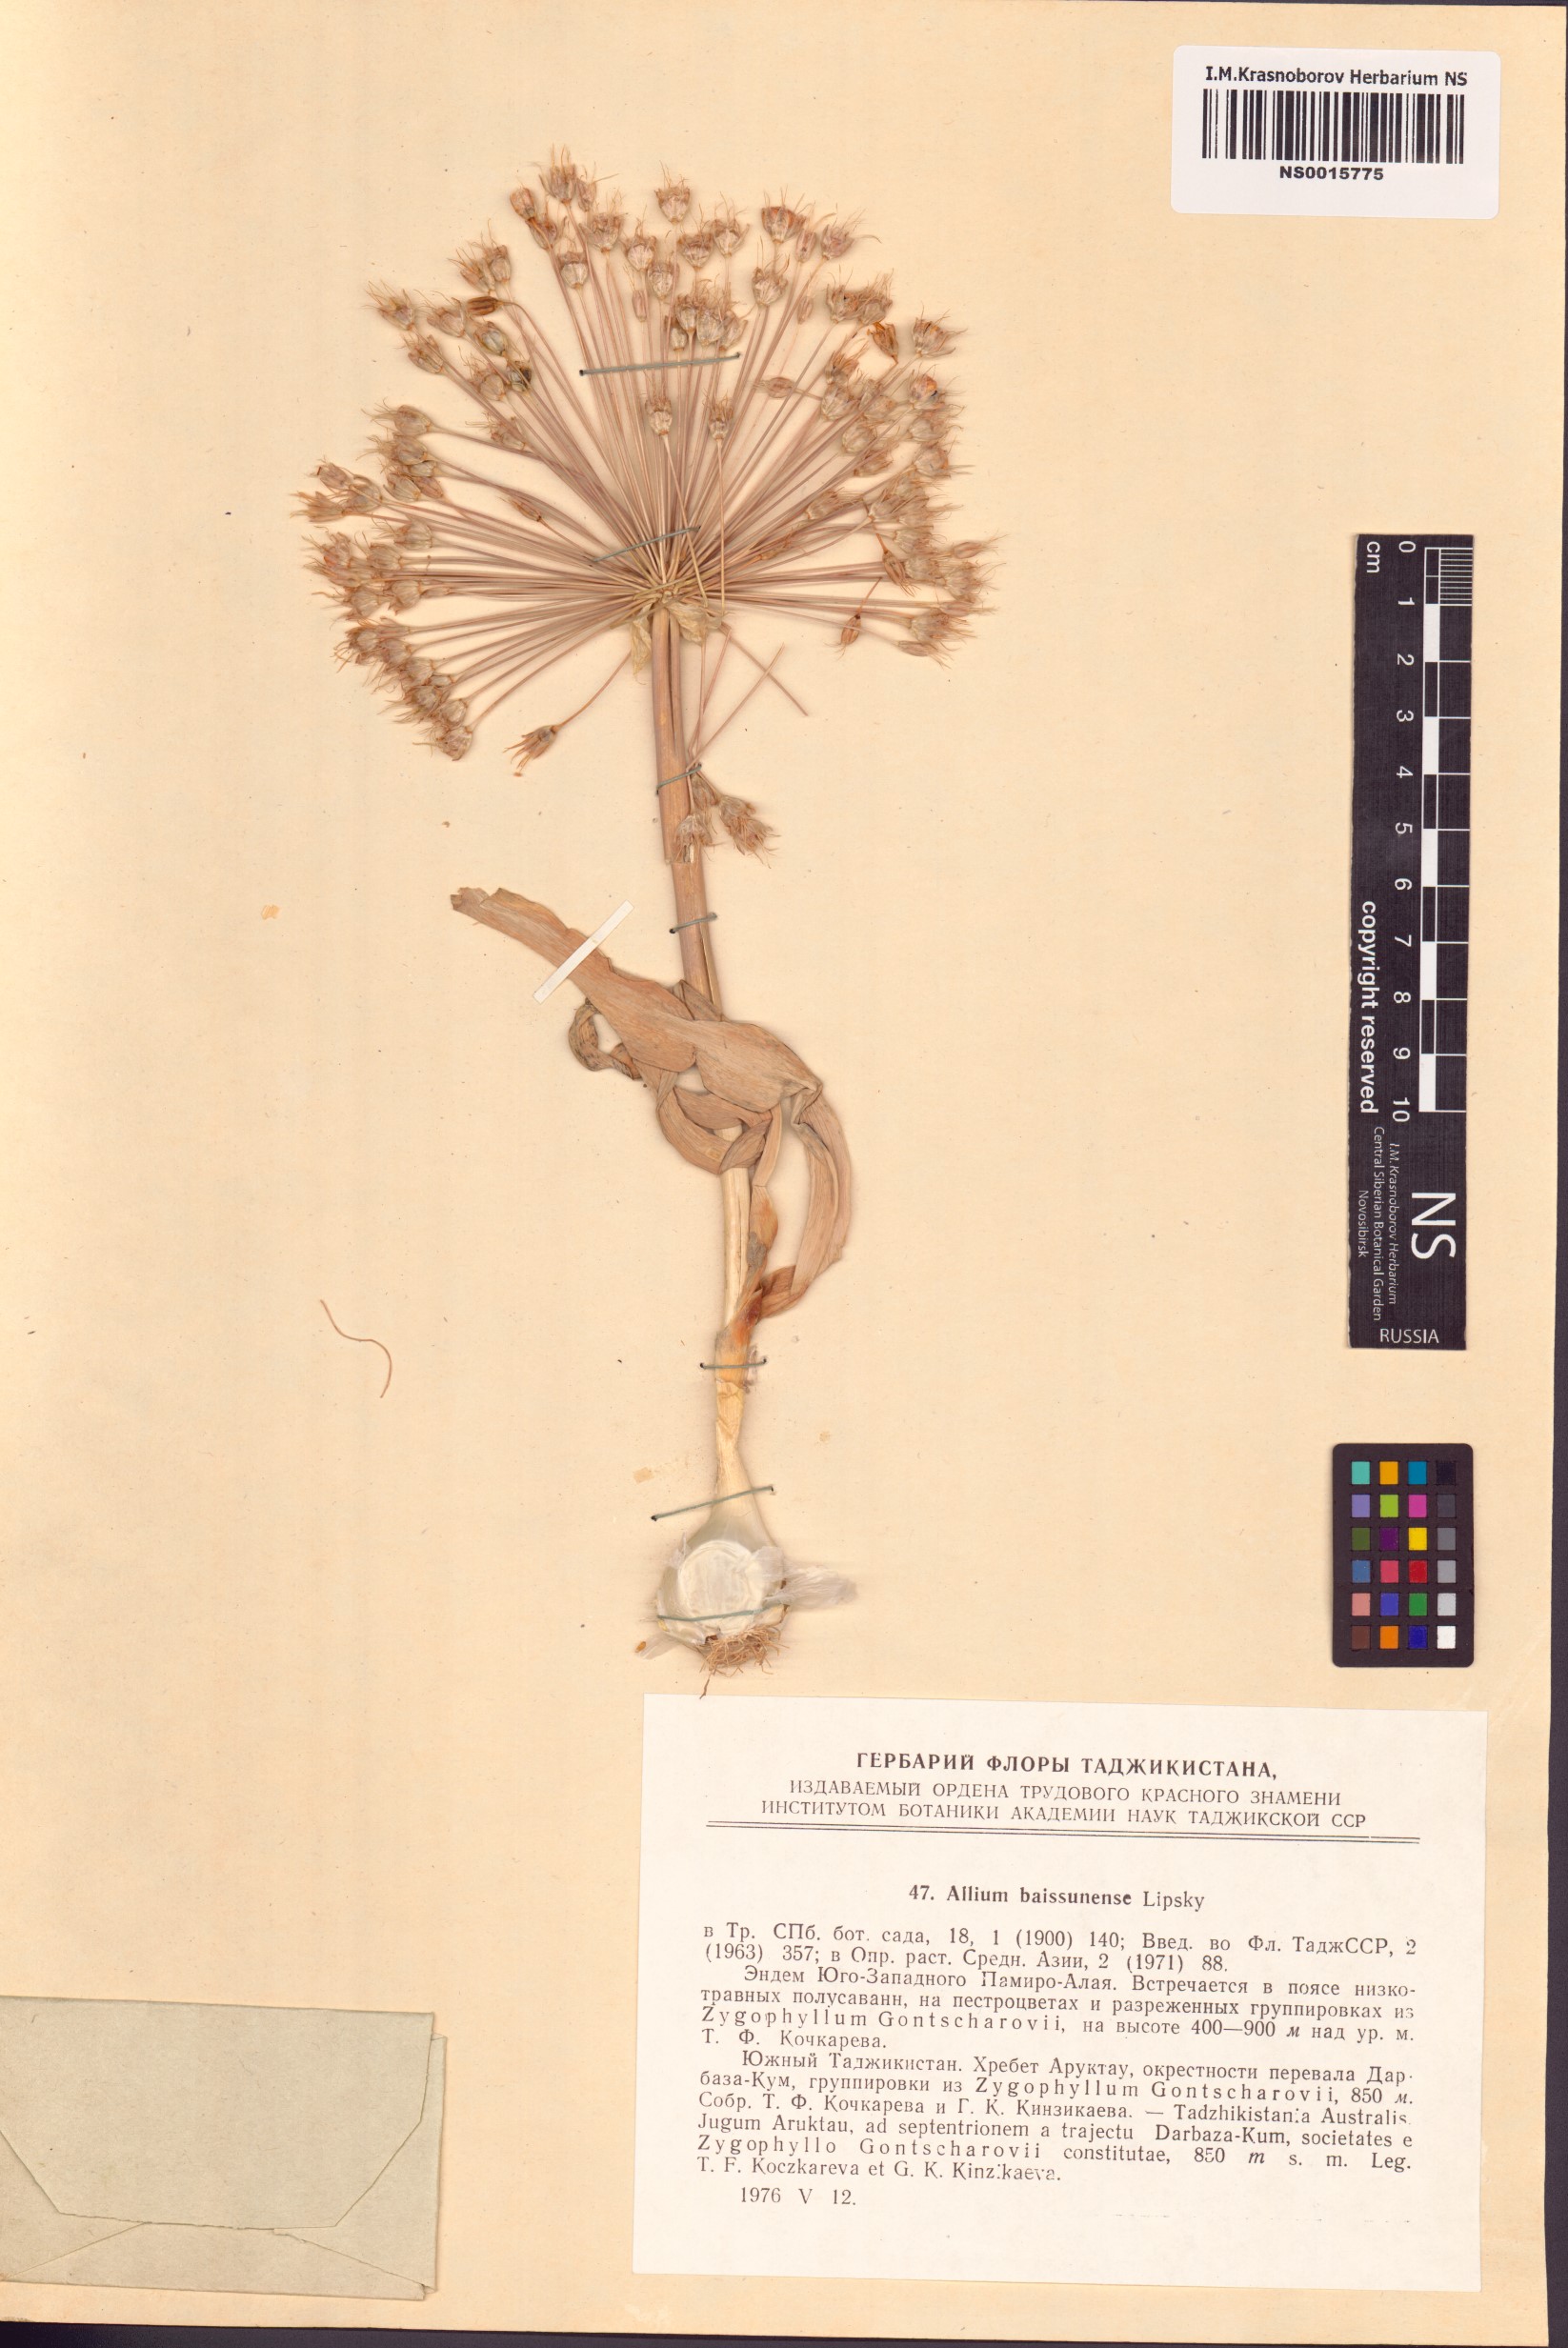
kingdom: Plantae
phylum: Tracheophyta
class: Liliopsida
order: Asparagales
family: Amaryllidaceae
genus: Allium
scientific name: Allium caspium
